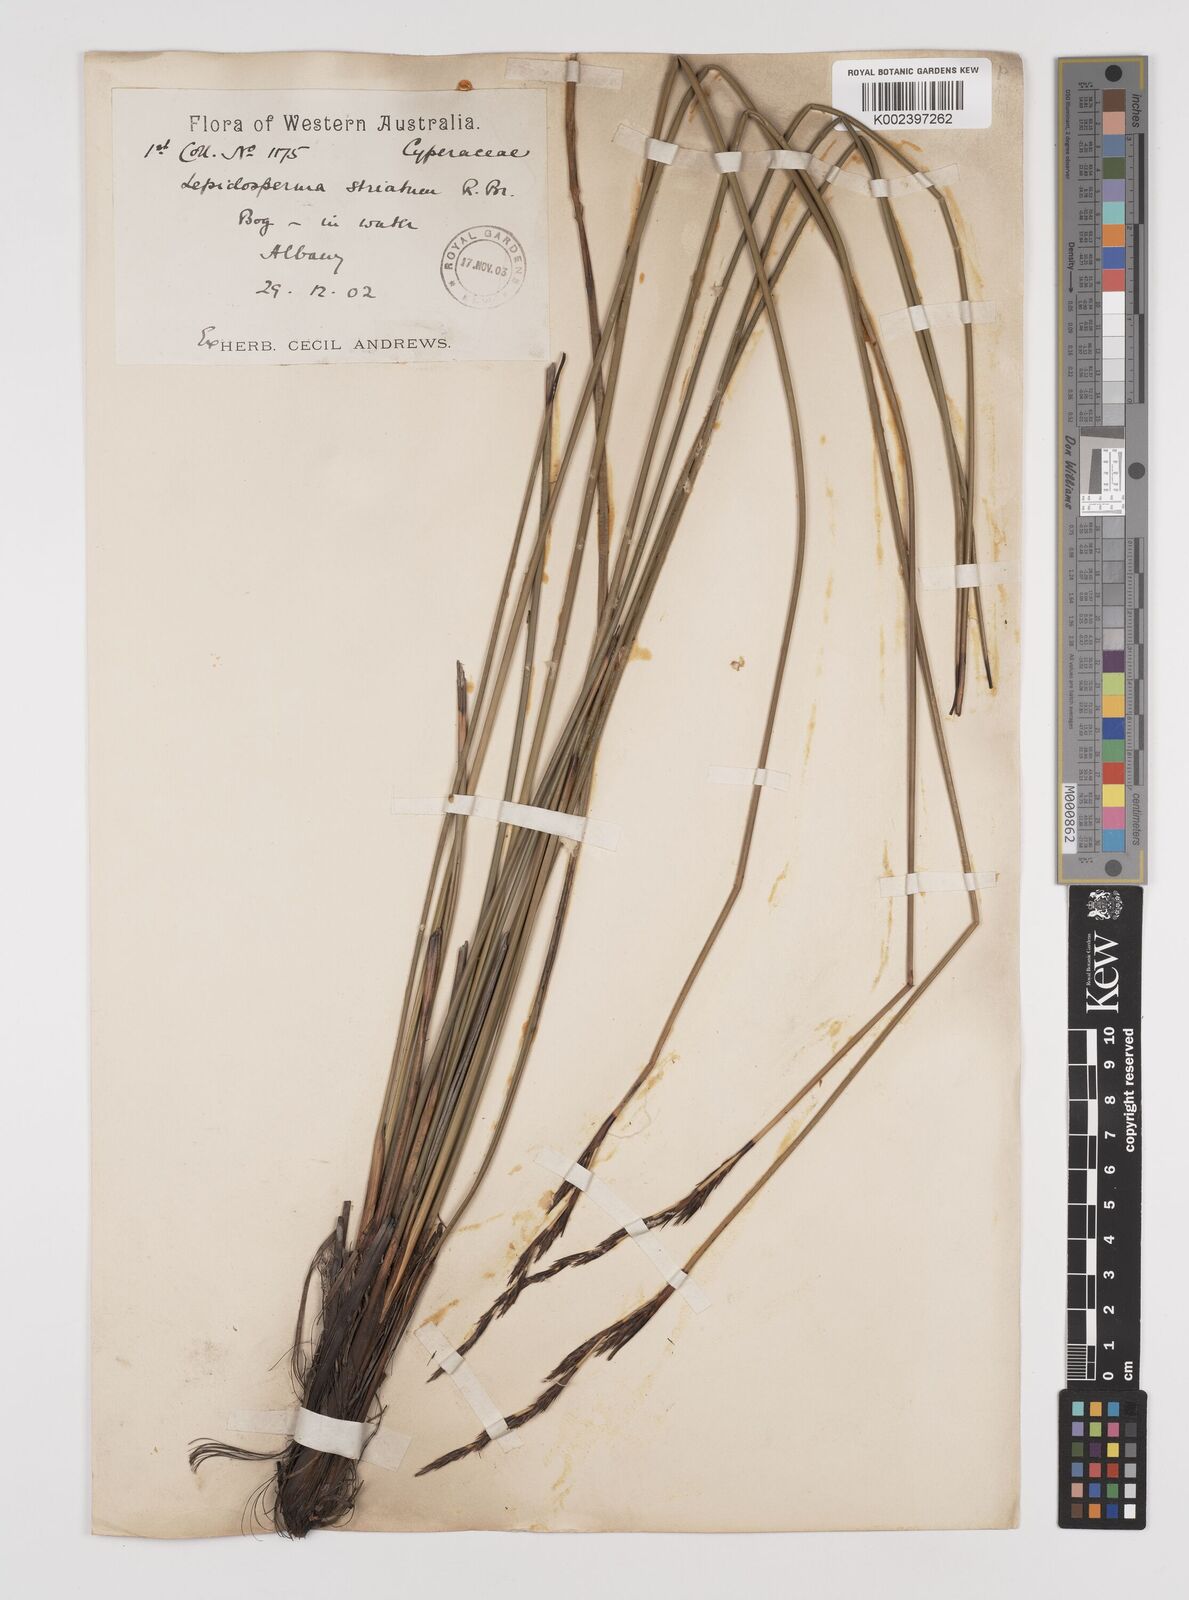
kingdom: Plantae
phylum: Tracheophyta
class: Liliopsida
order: Poales
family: Cyperaceae
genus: Lepidosperma
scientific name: Lepidosperma striatum
